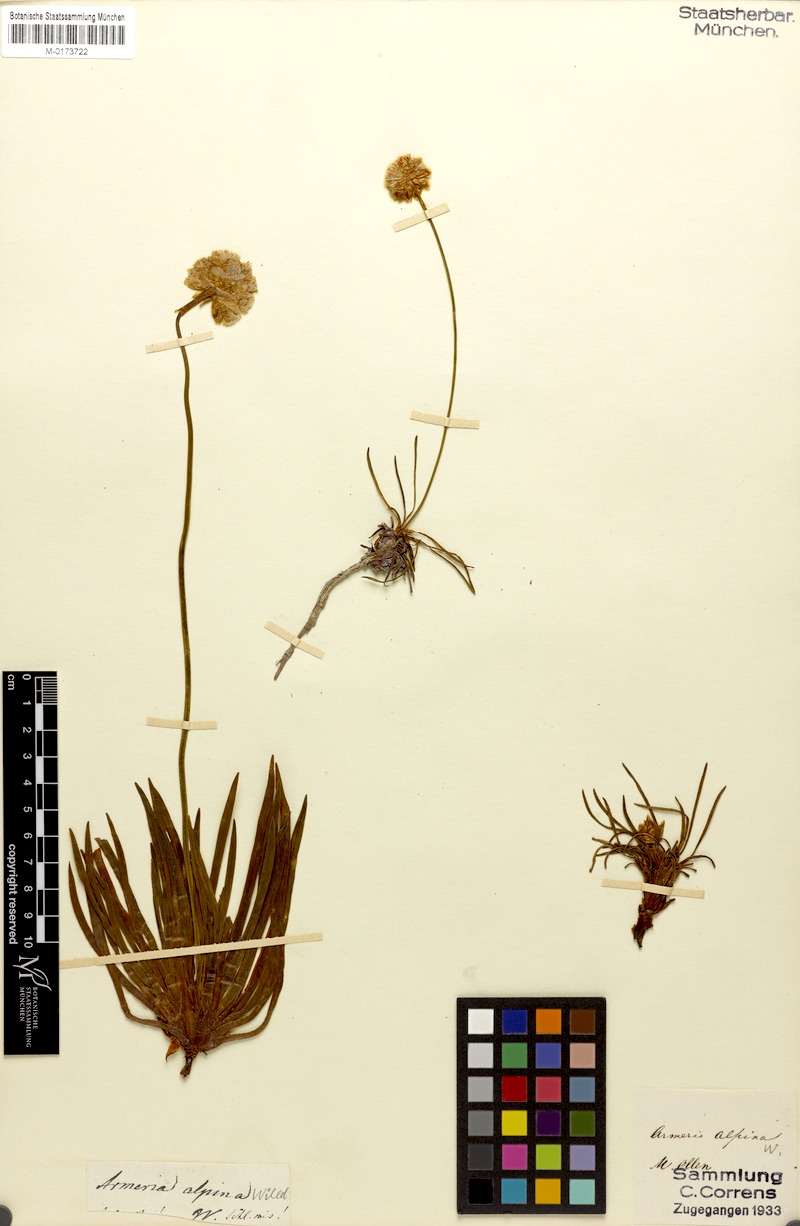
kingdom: Plantae
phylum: Tracheophyta
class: Magnoliopsida
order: Caryophyllales
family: Plumbaginaceae
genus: Armeria
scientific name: Armeria alpina
